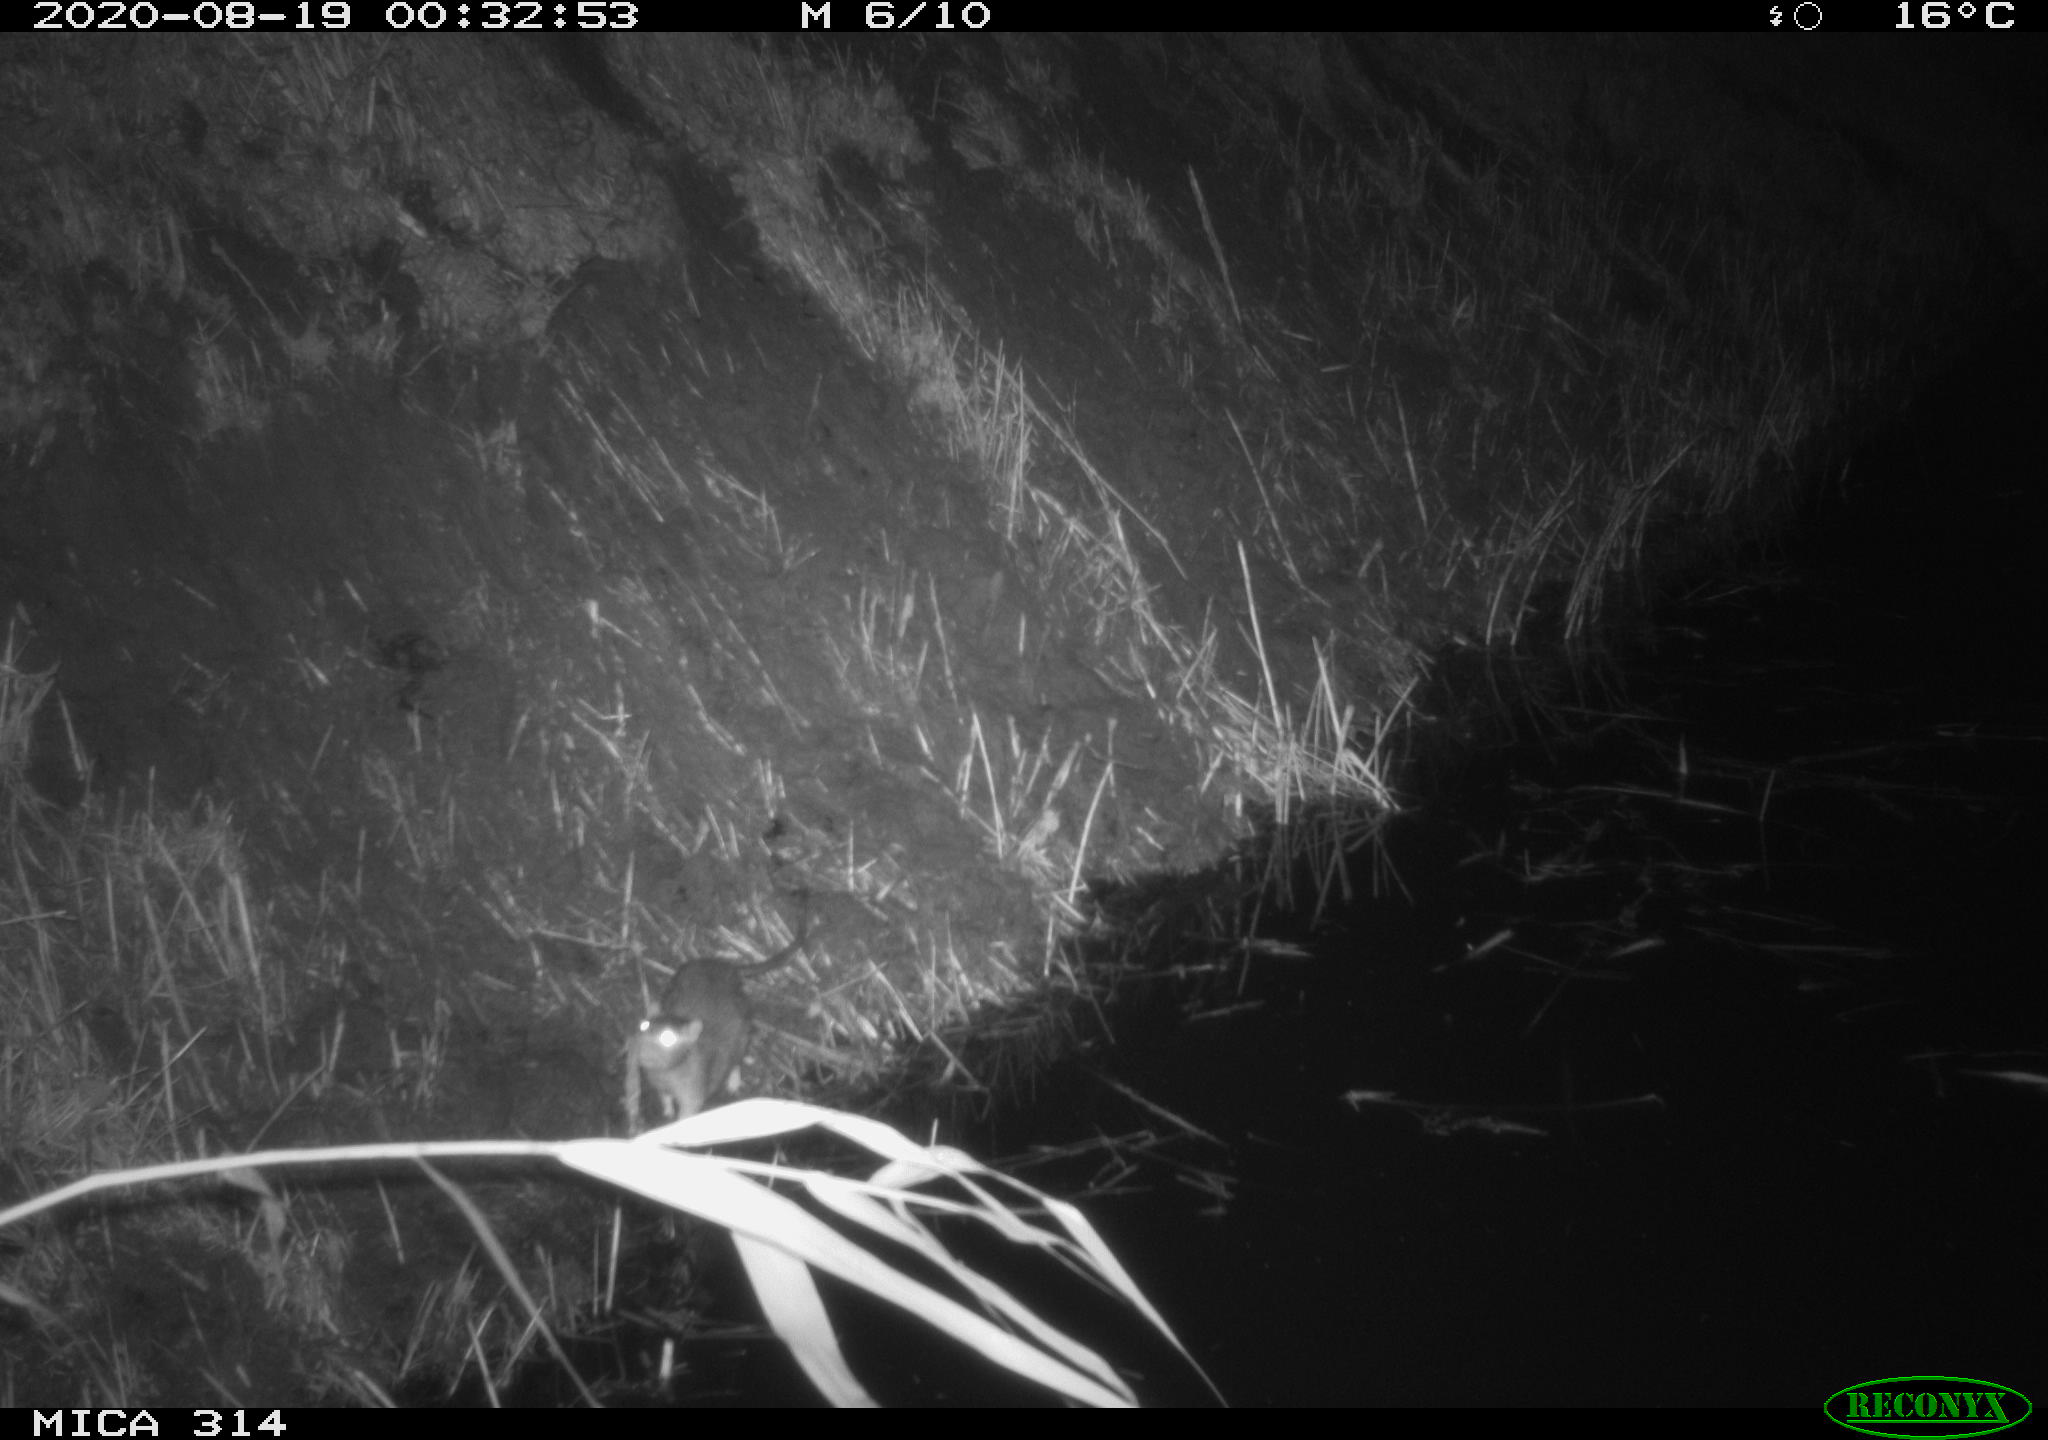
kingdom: Animalia
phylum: Chordata
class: Mammalia
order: Rodentia
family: Muridae
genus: Rattus
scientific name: Rattus norvegicus
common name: Brown rat
